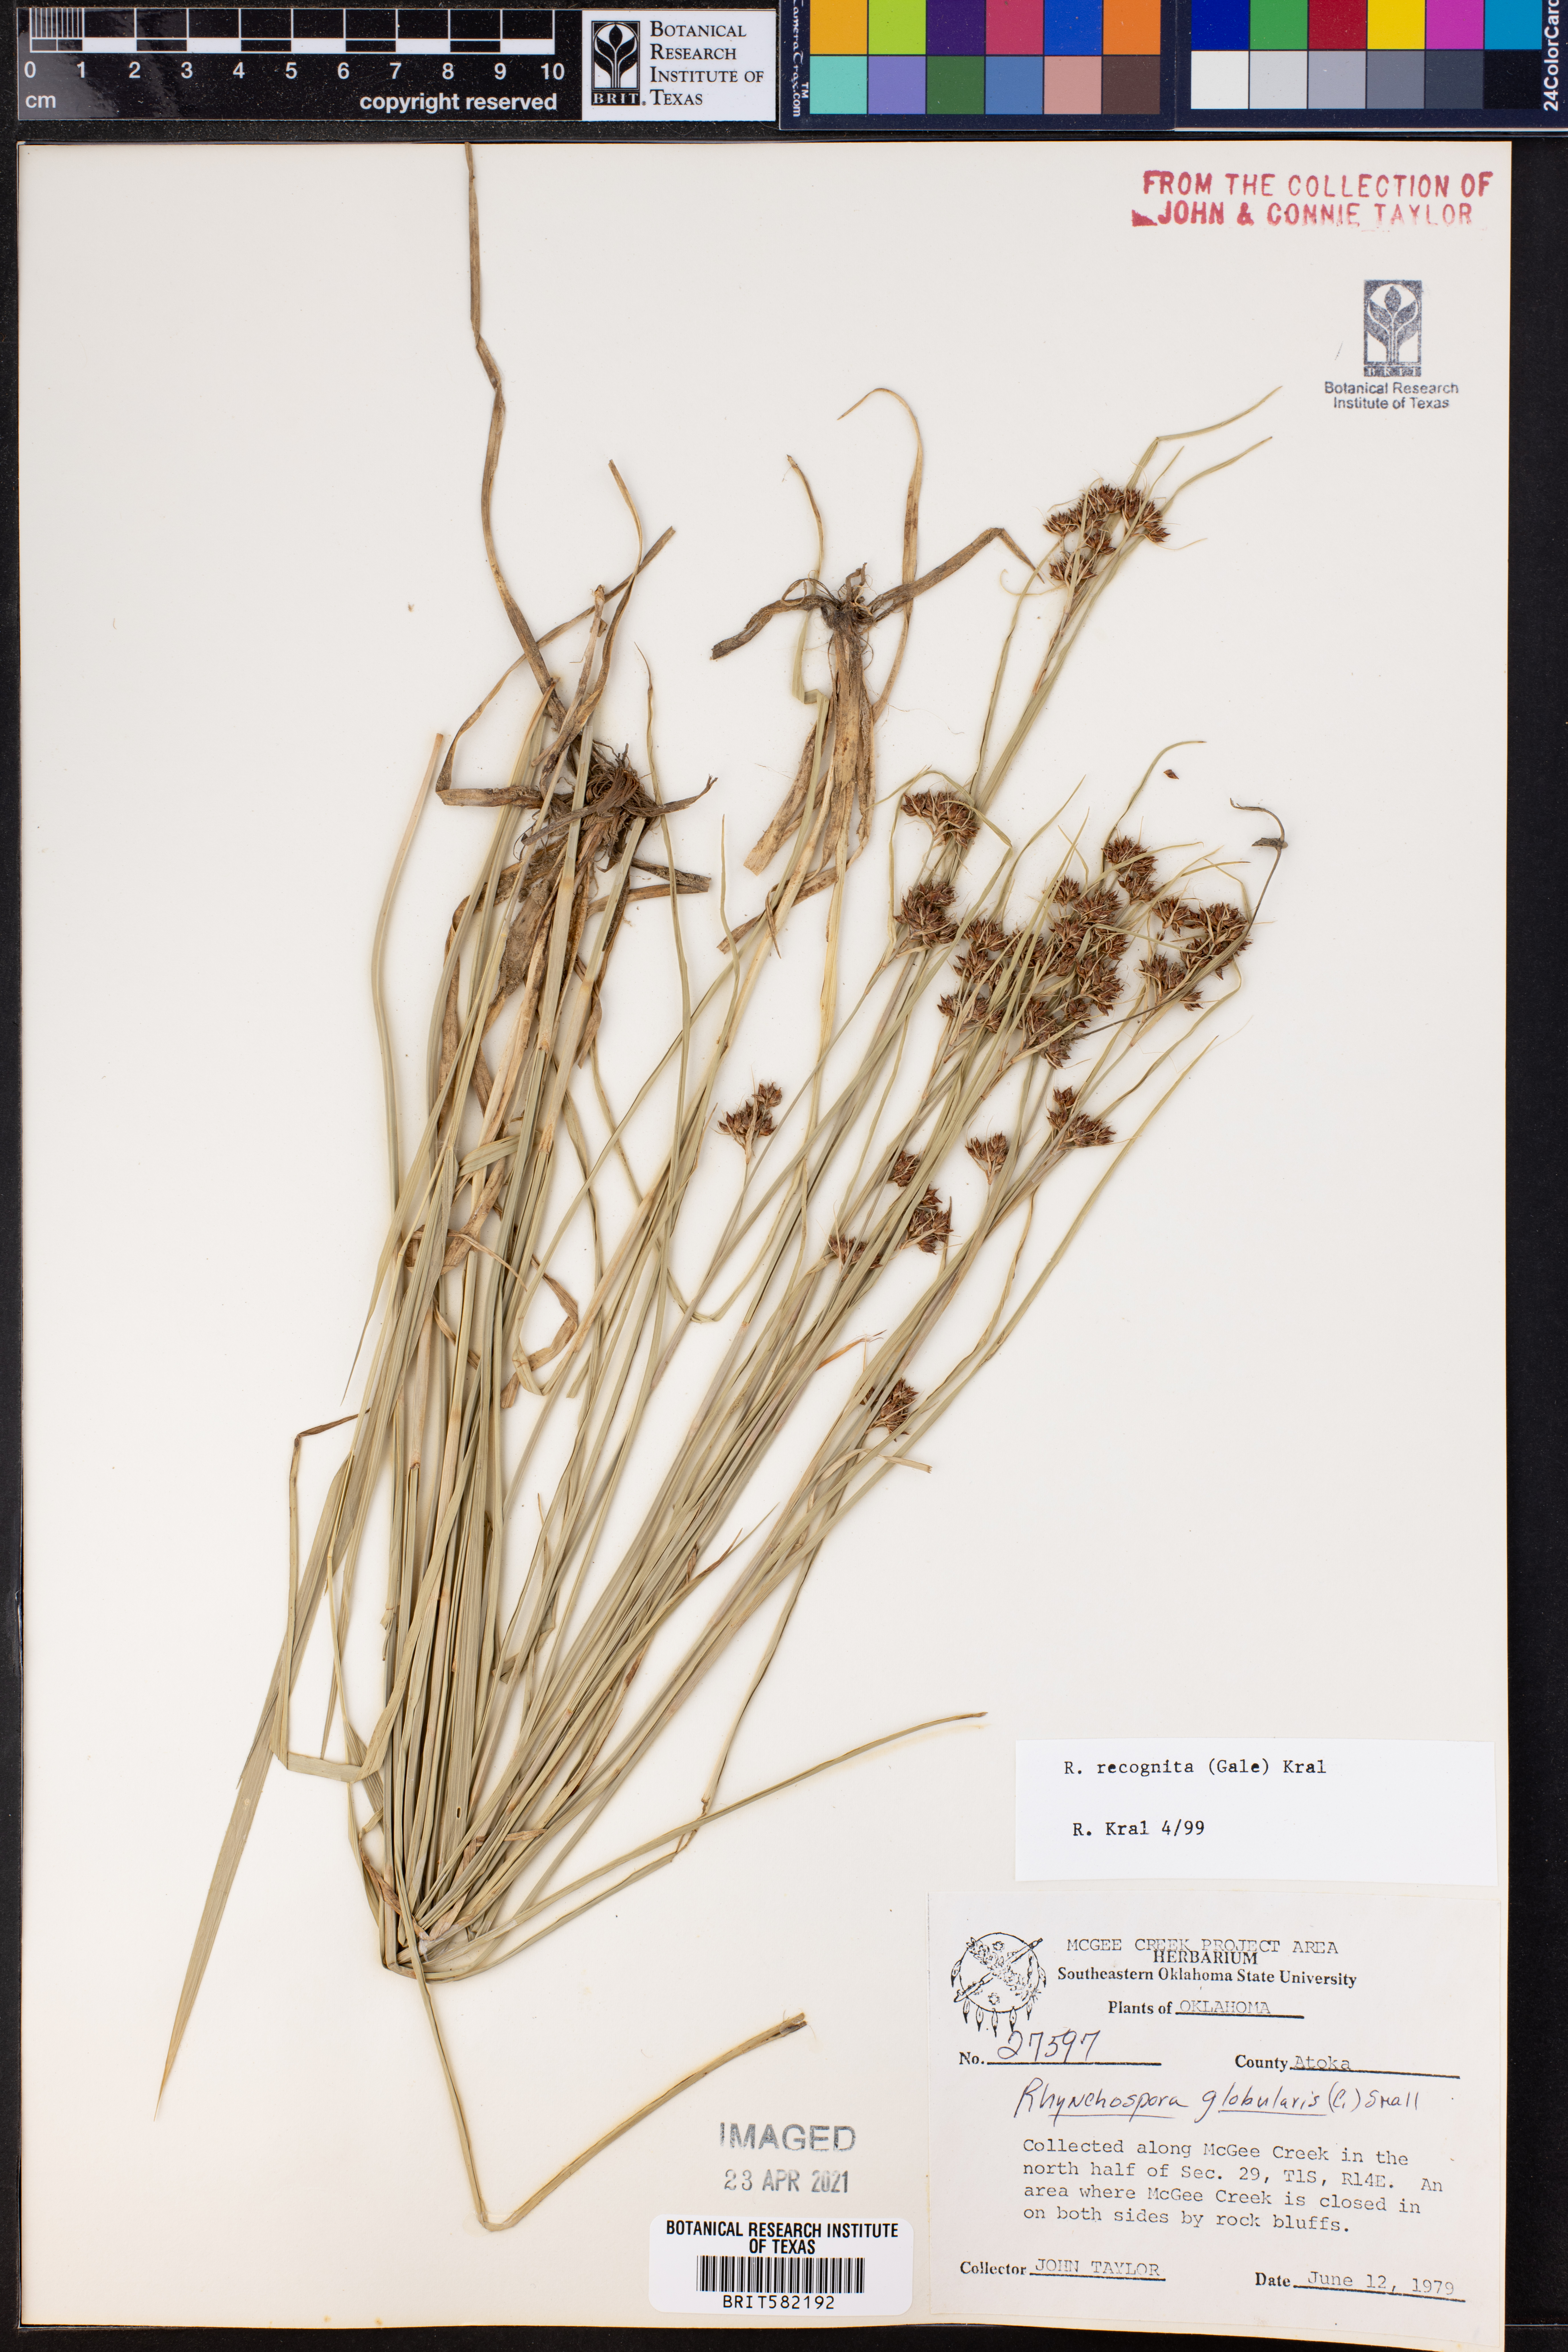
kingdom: Plantae
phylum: Tracheophyta
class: Liliopsida
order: Poales
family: Cyperaceae
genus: Rhynchospora
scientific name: Rhynchospora recognita
